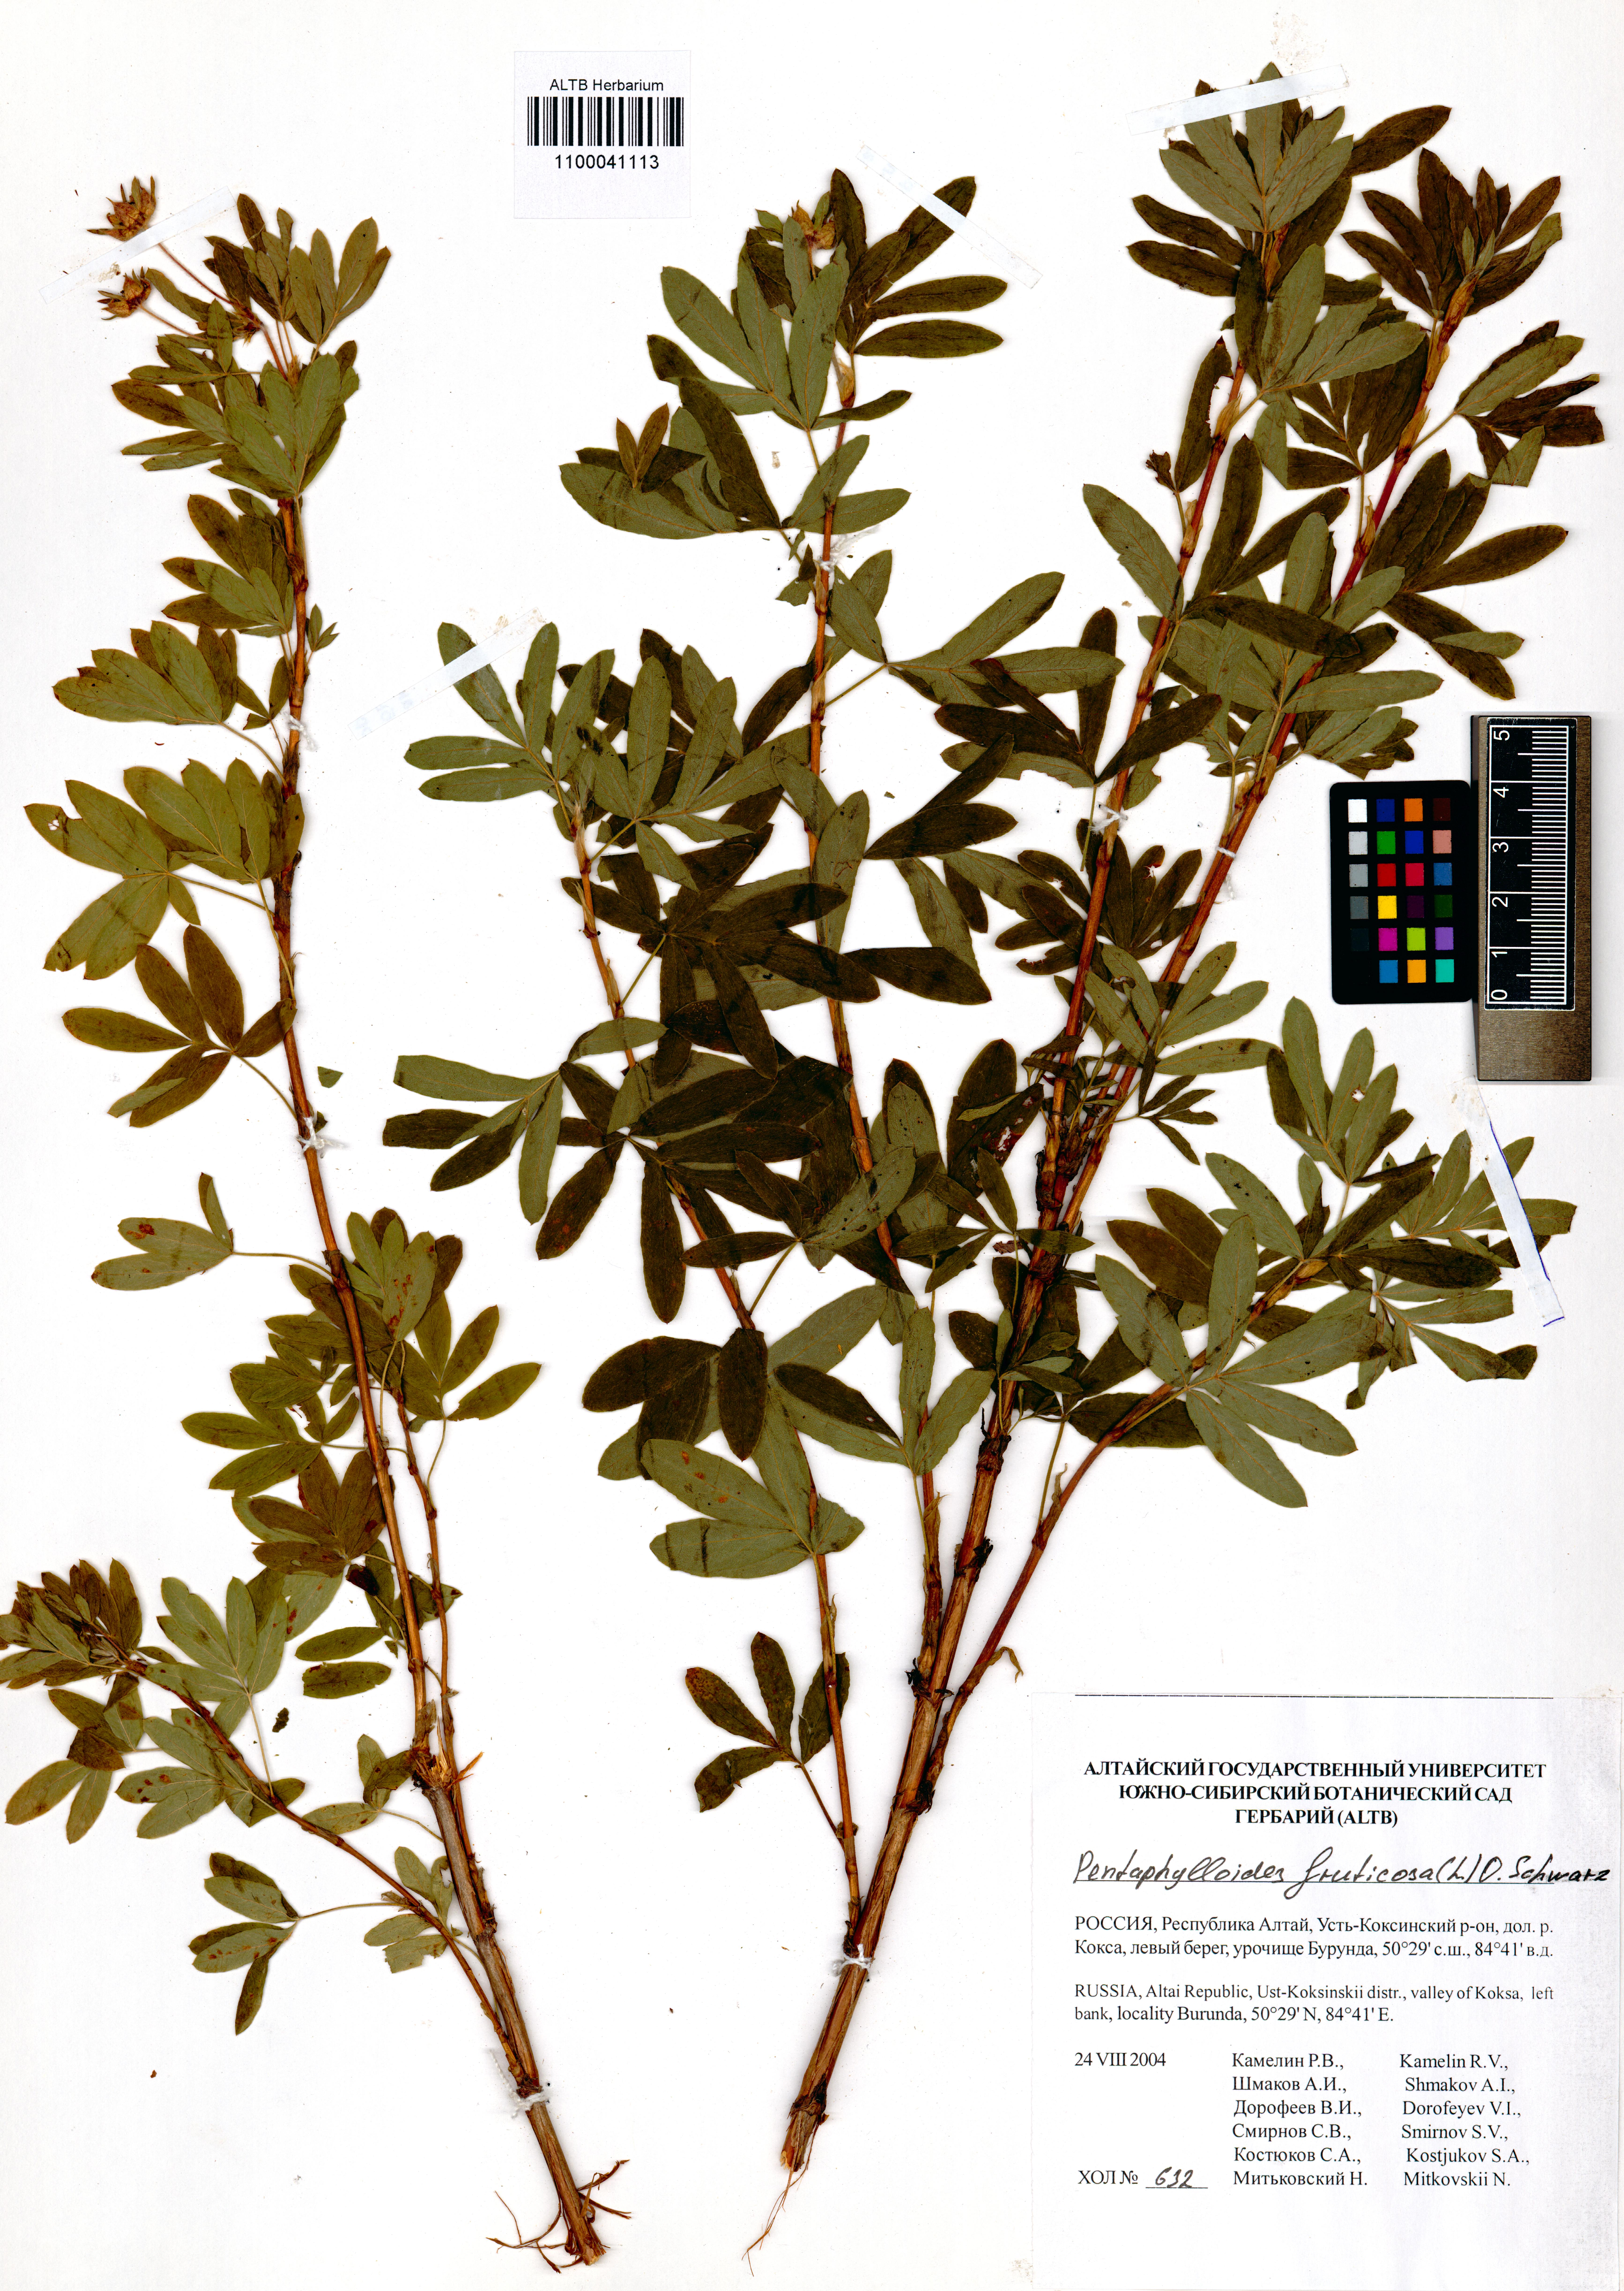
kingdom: Plantae
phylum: Tracheophyta
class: Magnoliopsida
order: Rosales
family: Rosaceae
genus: Dasiphora
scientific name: Dasiphora fruticosa
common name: Shrubby cinquefoil
